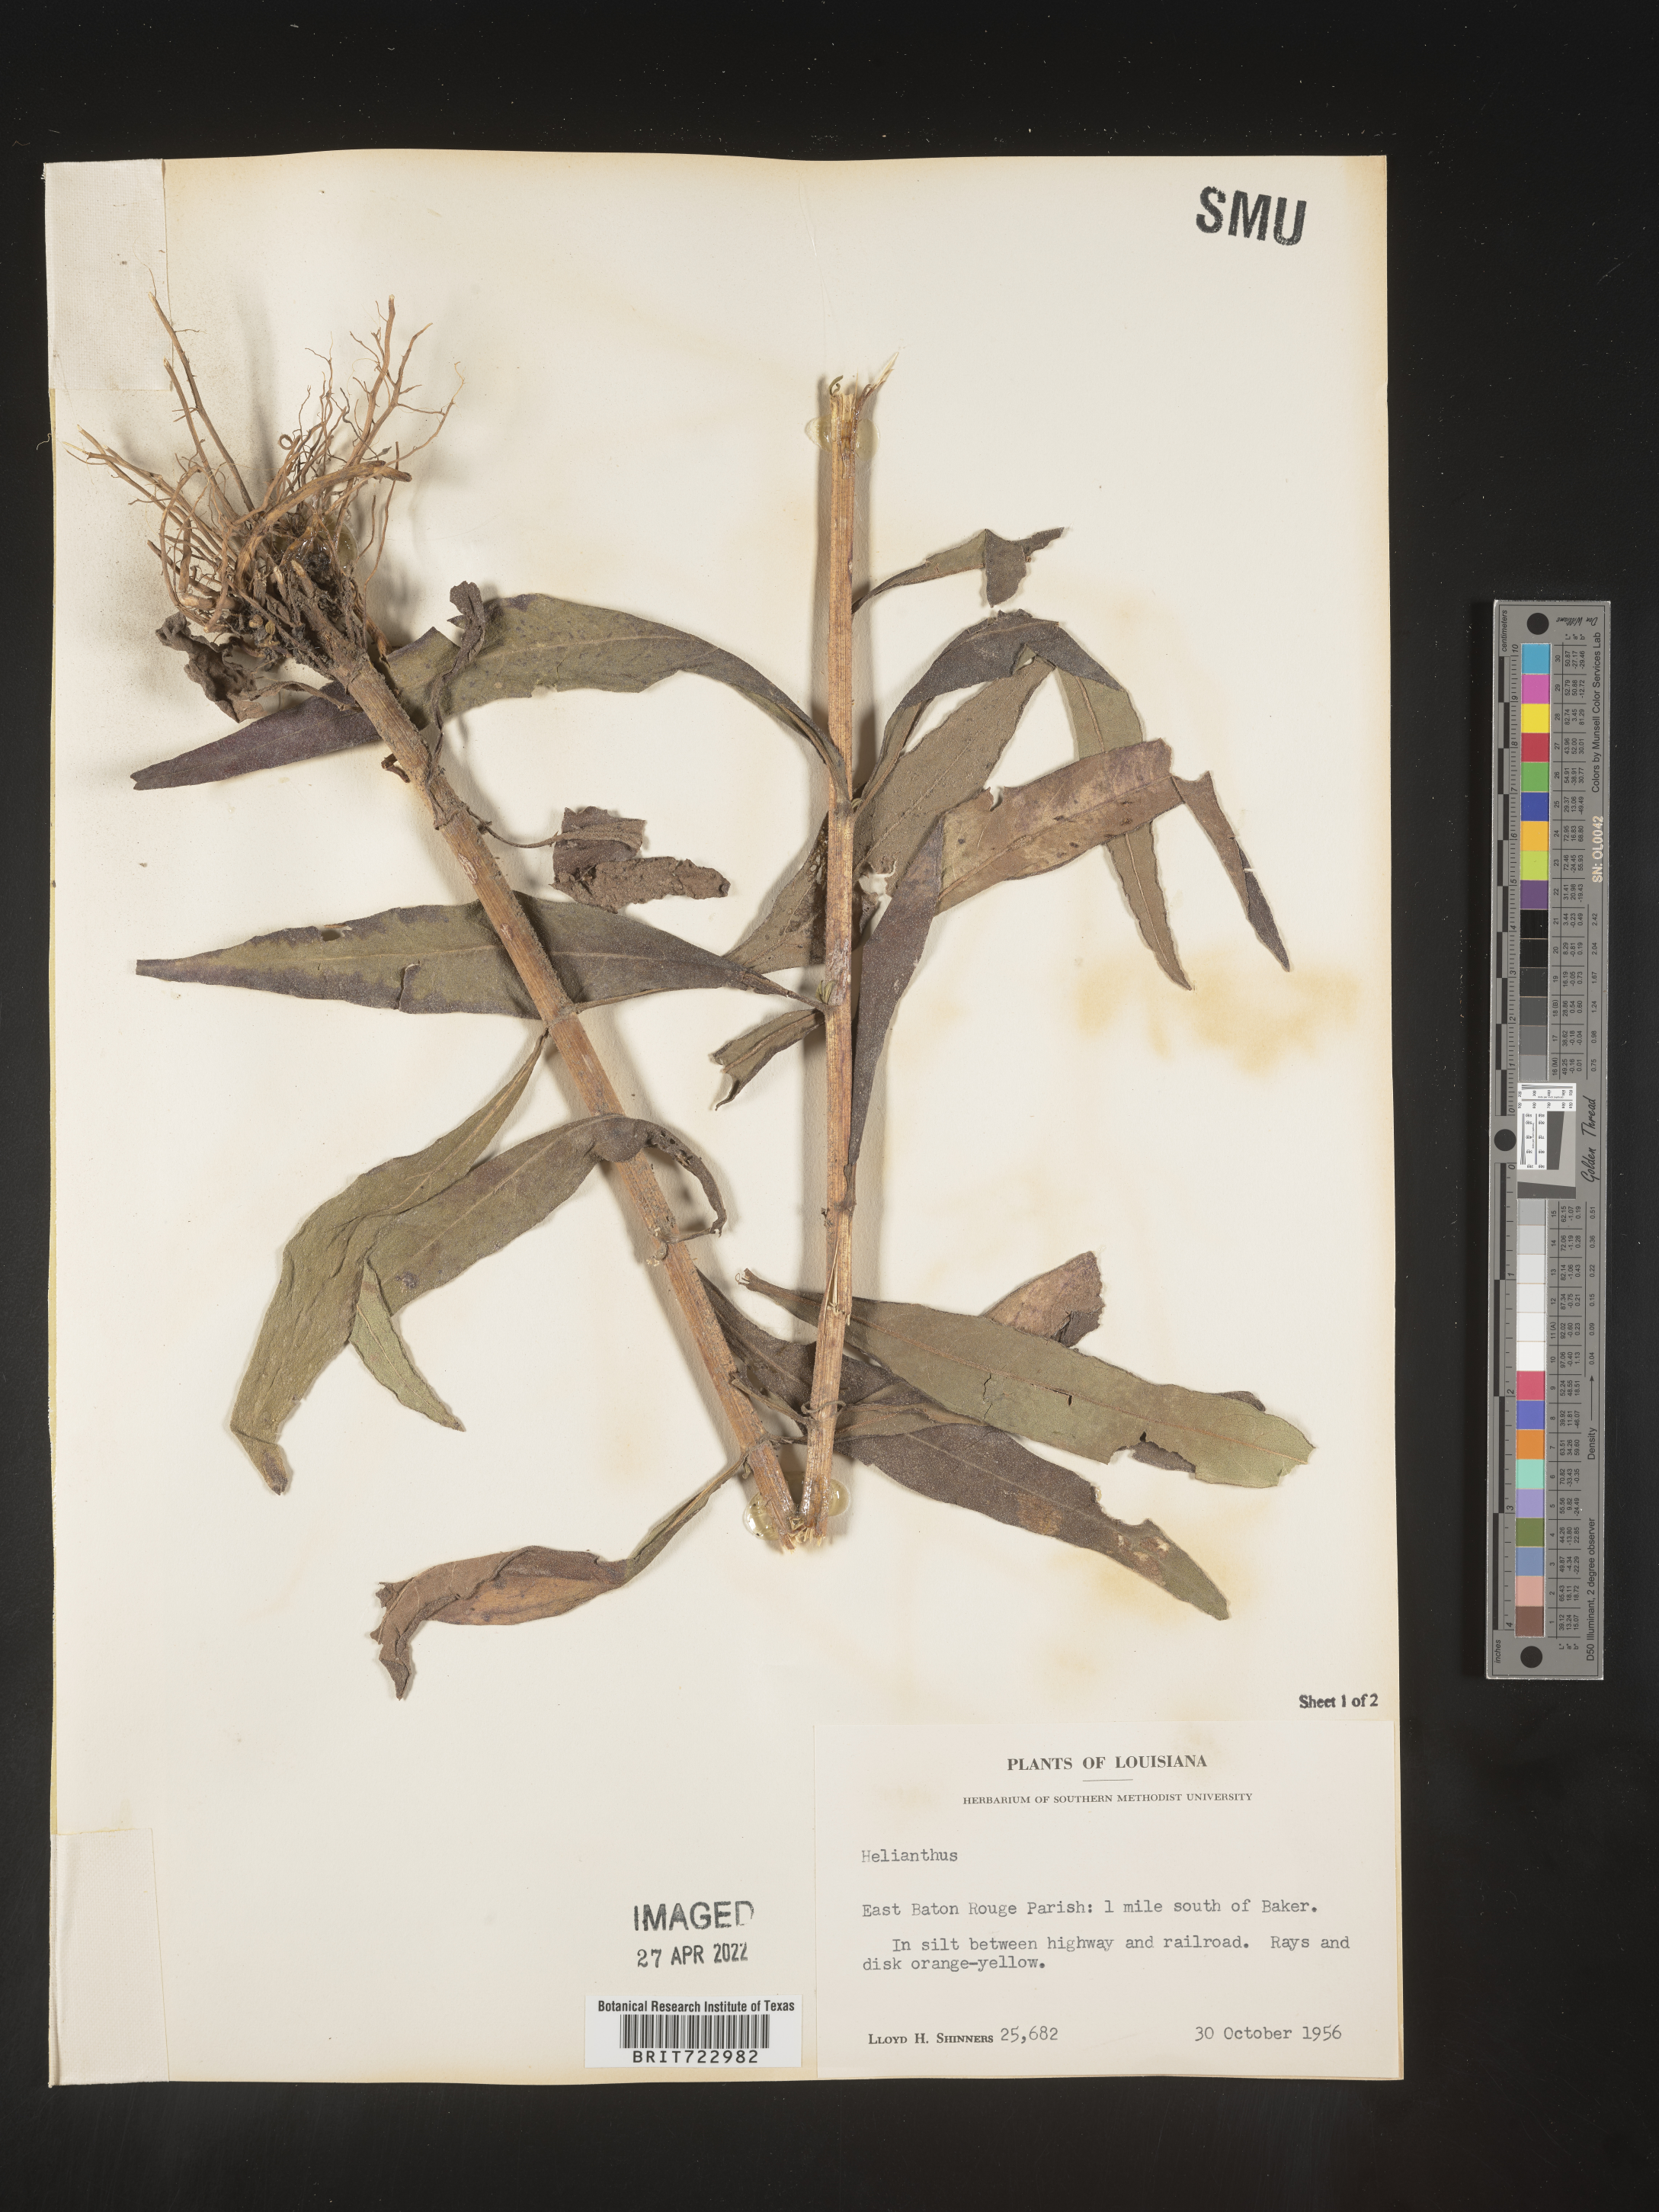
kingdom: Plantae
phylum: Tracheophyta
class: Magnoliopsida
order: Asterales
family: Asteraceae
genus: Helianthus
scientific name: Helianthus
